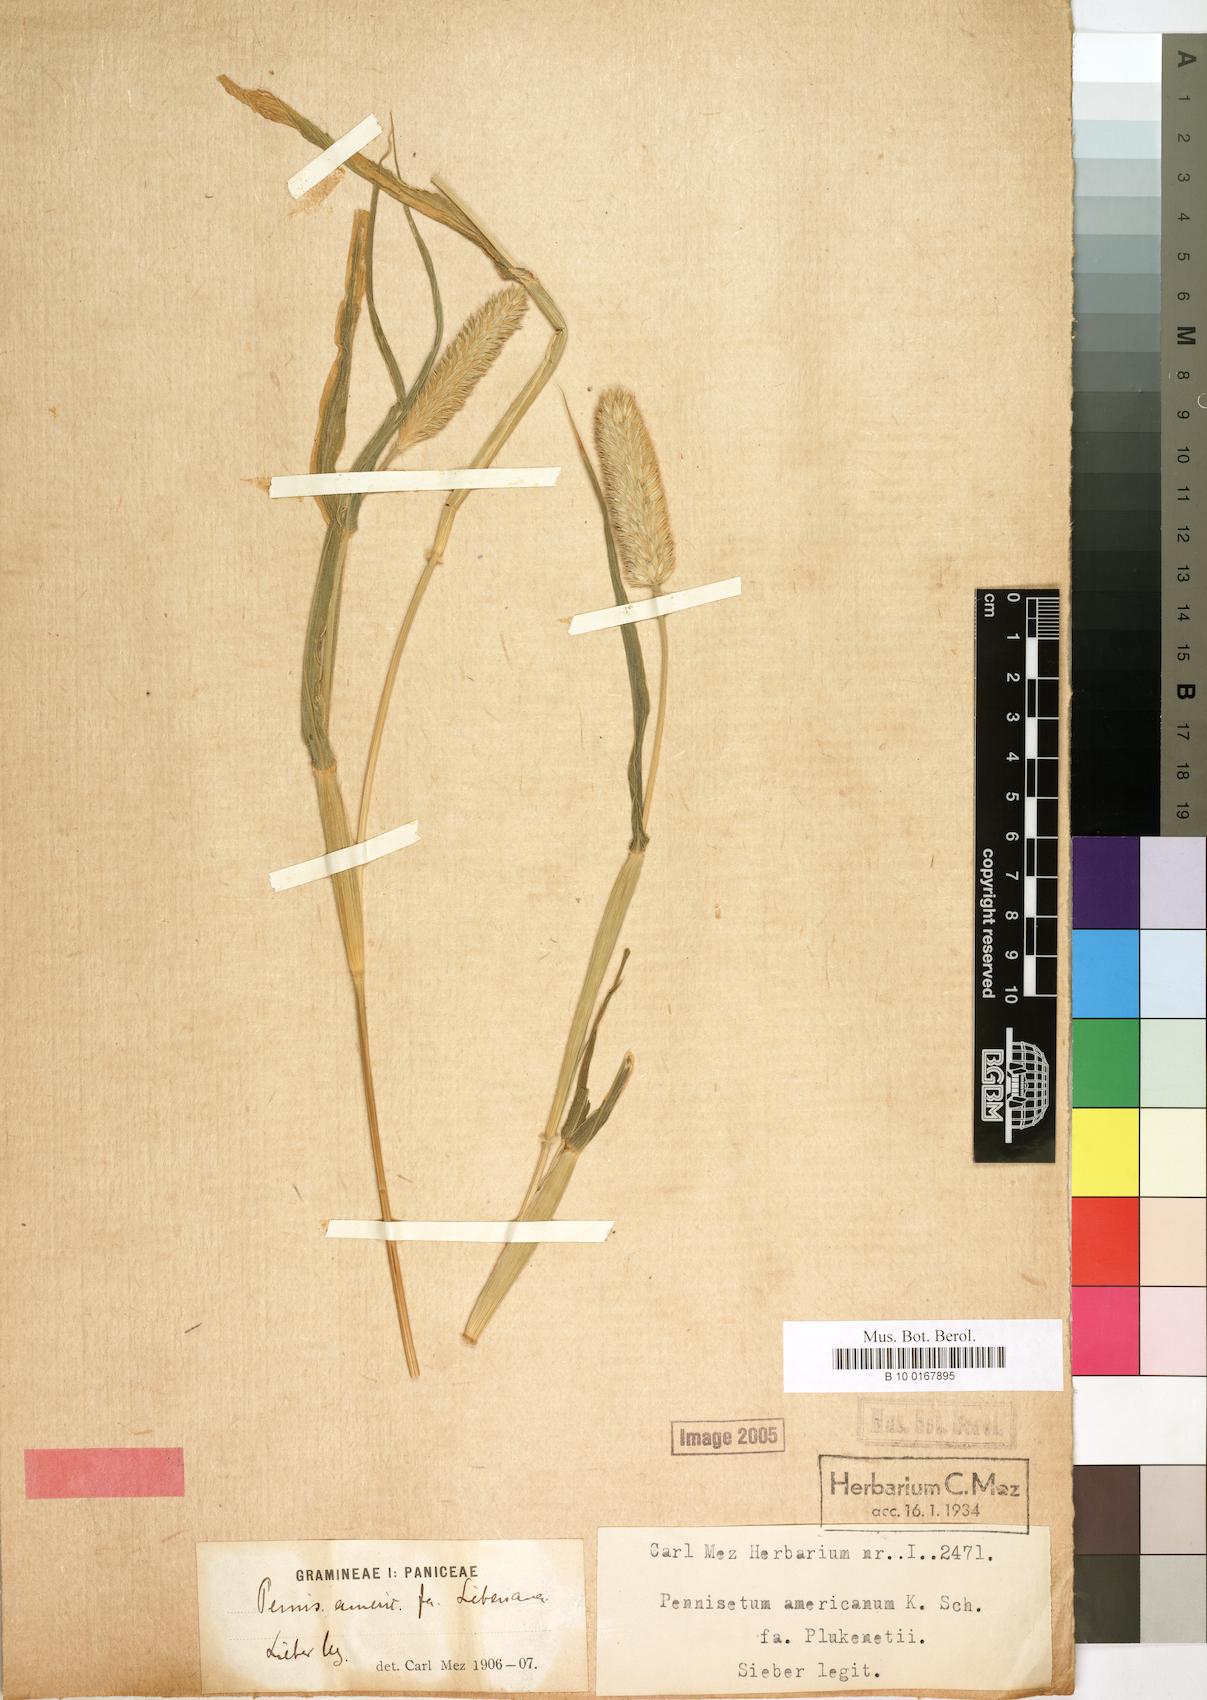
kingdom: Plantae
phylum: Tracheophyta
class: Liliopsida
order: Poales
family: Poaceae
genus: Cenchrus
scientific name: Cenchrus americanus
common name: Pearl millet
